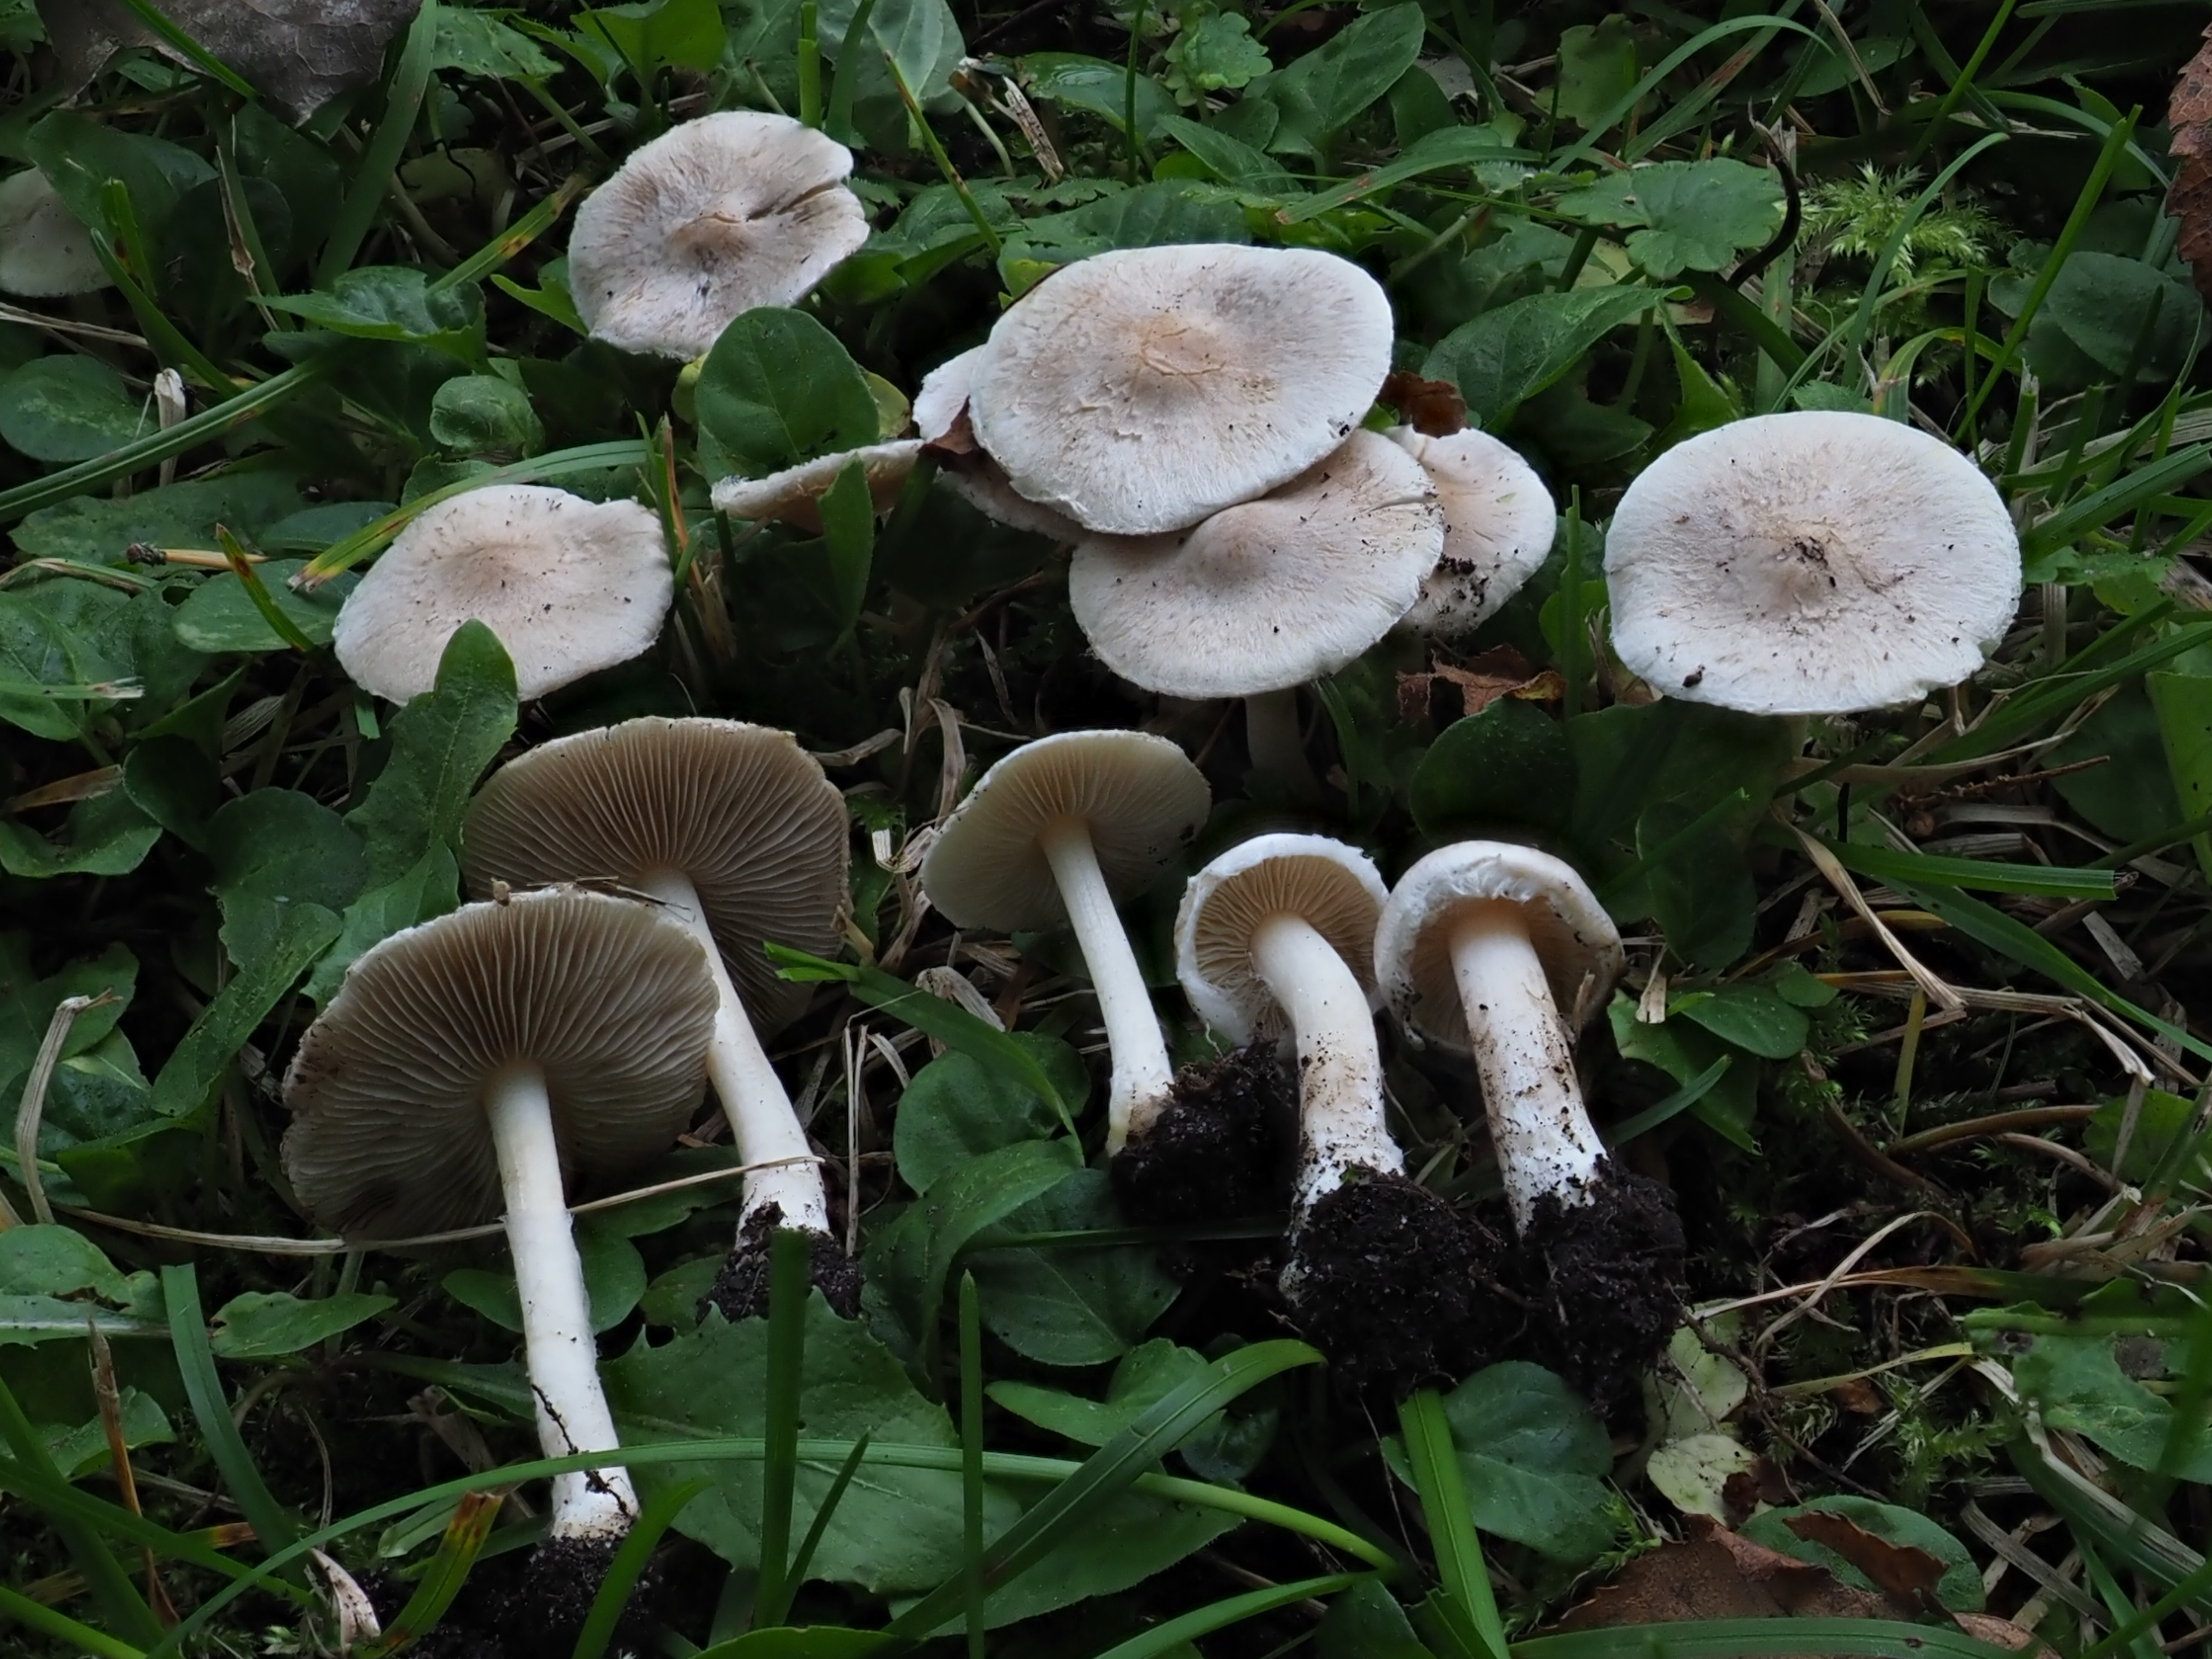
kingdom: Fungi
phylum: Basidiomycota
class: Agaricomycetes
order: Agaricales
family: Inocybaceae
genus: Inocybe
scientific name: Inocybe sindonia
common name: Beige fibrecap
